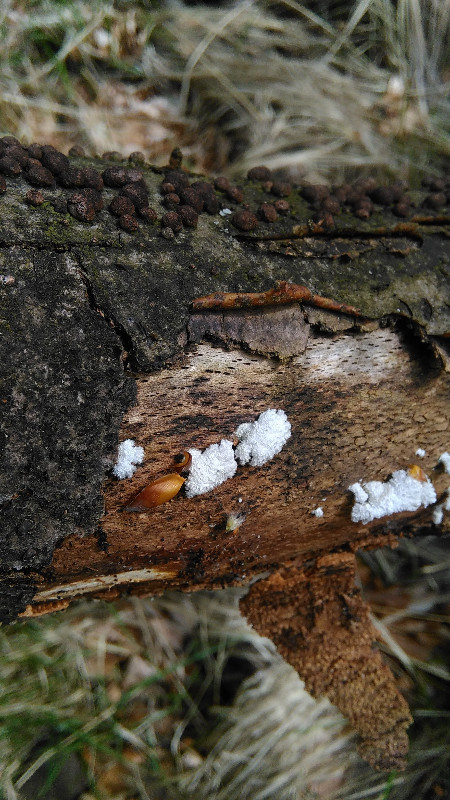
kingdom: Fungi
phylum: Basidiomycota
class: Agaricomycetes
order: Agaricales
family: Schizophyllaceae
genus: Schizophyllum
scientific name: Schizophyllum commune
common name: kløvblad
